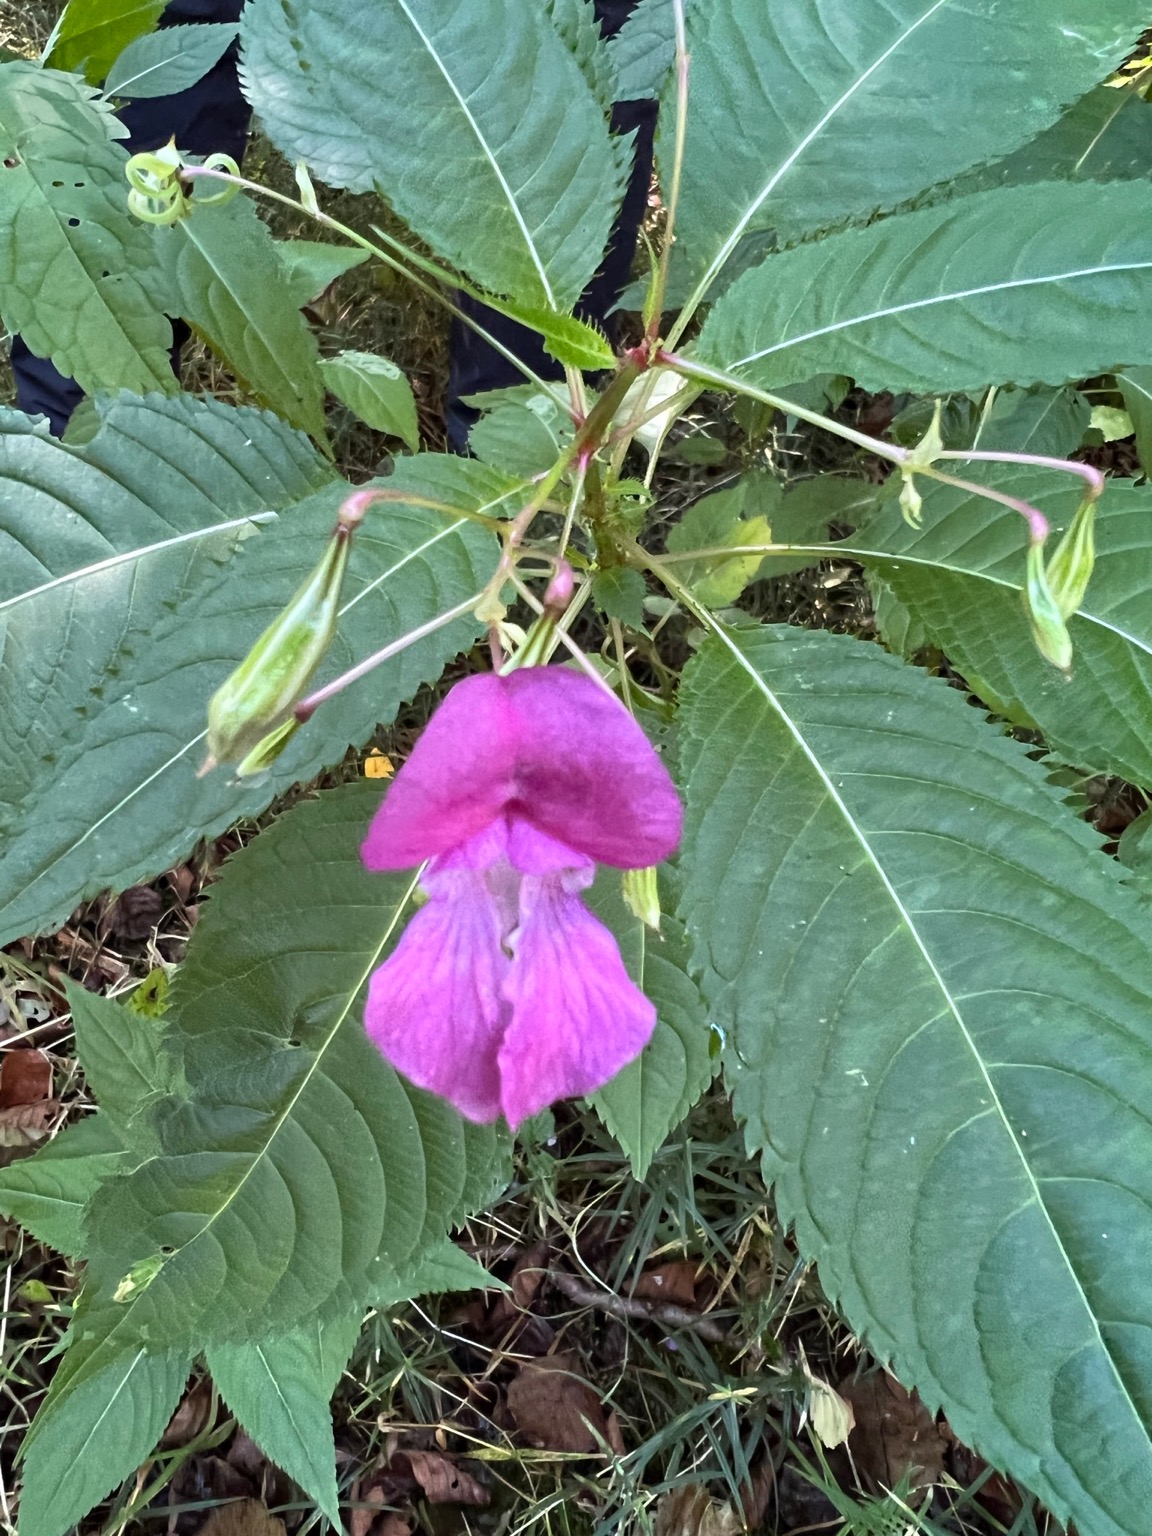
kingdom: Plantae
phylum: Tracheophyta
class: Magnoliopsida
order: Ericales
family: Balsaminaceae
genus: Impatiens
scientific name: Impatiens glandulifera
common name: Kæmpe-balsamin
